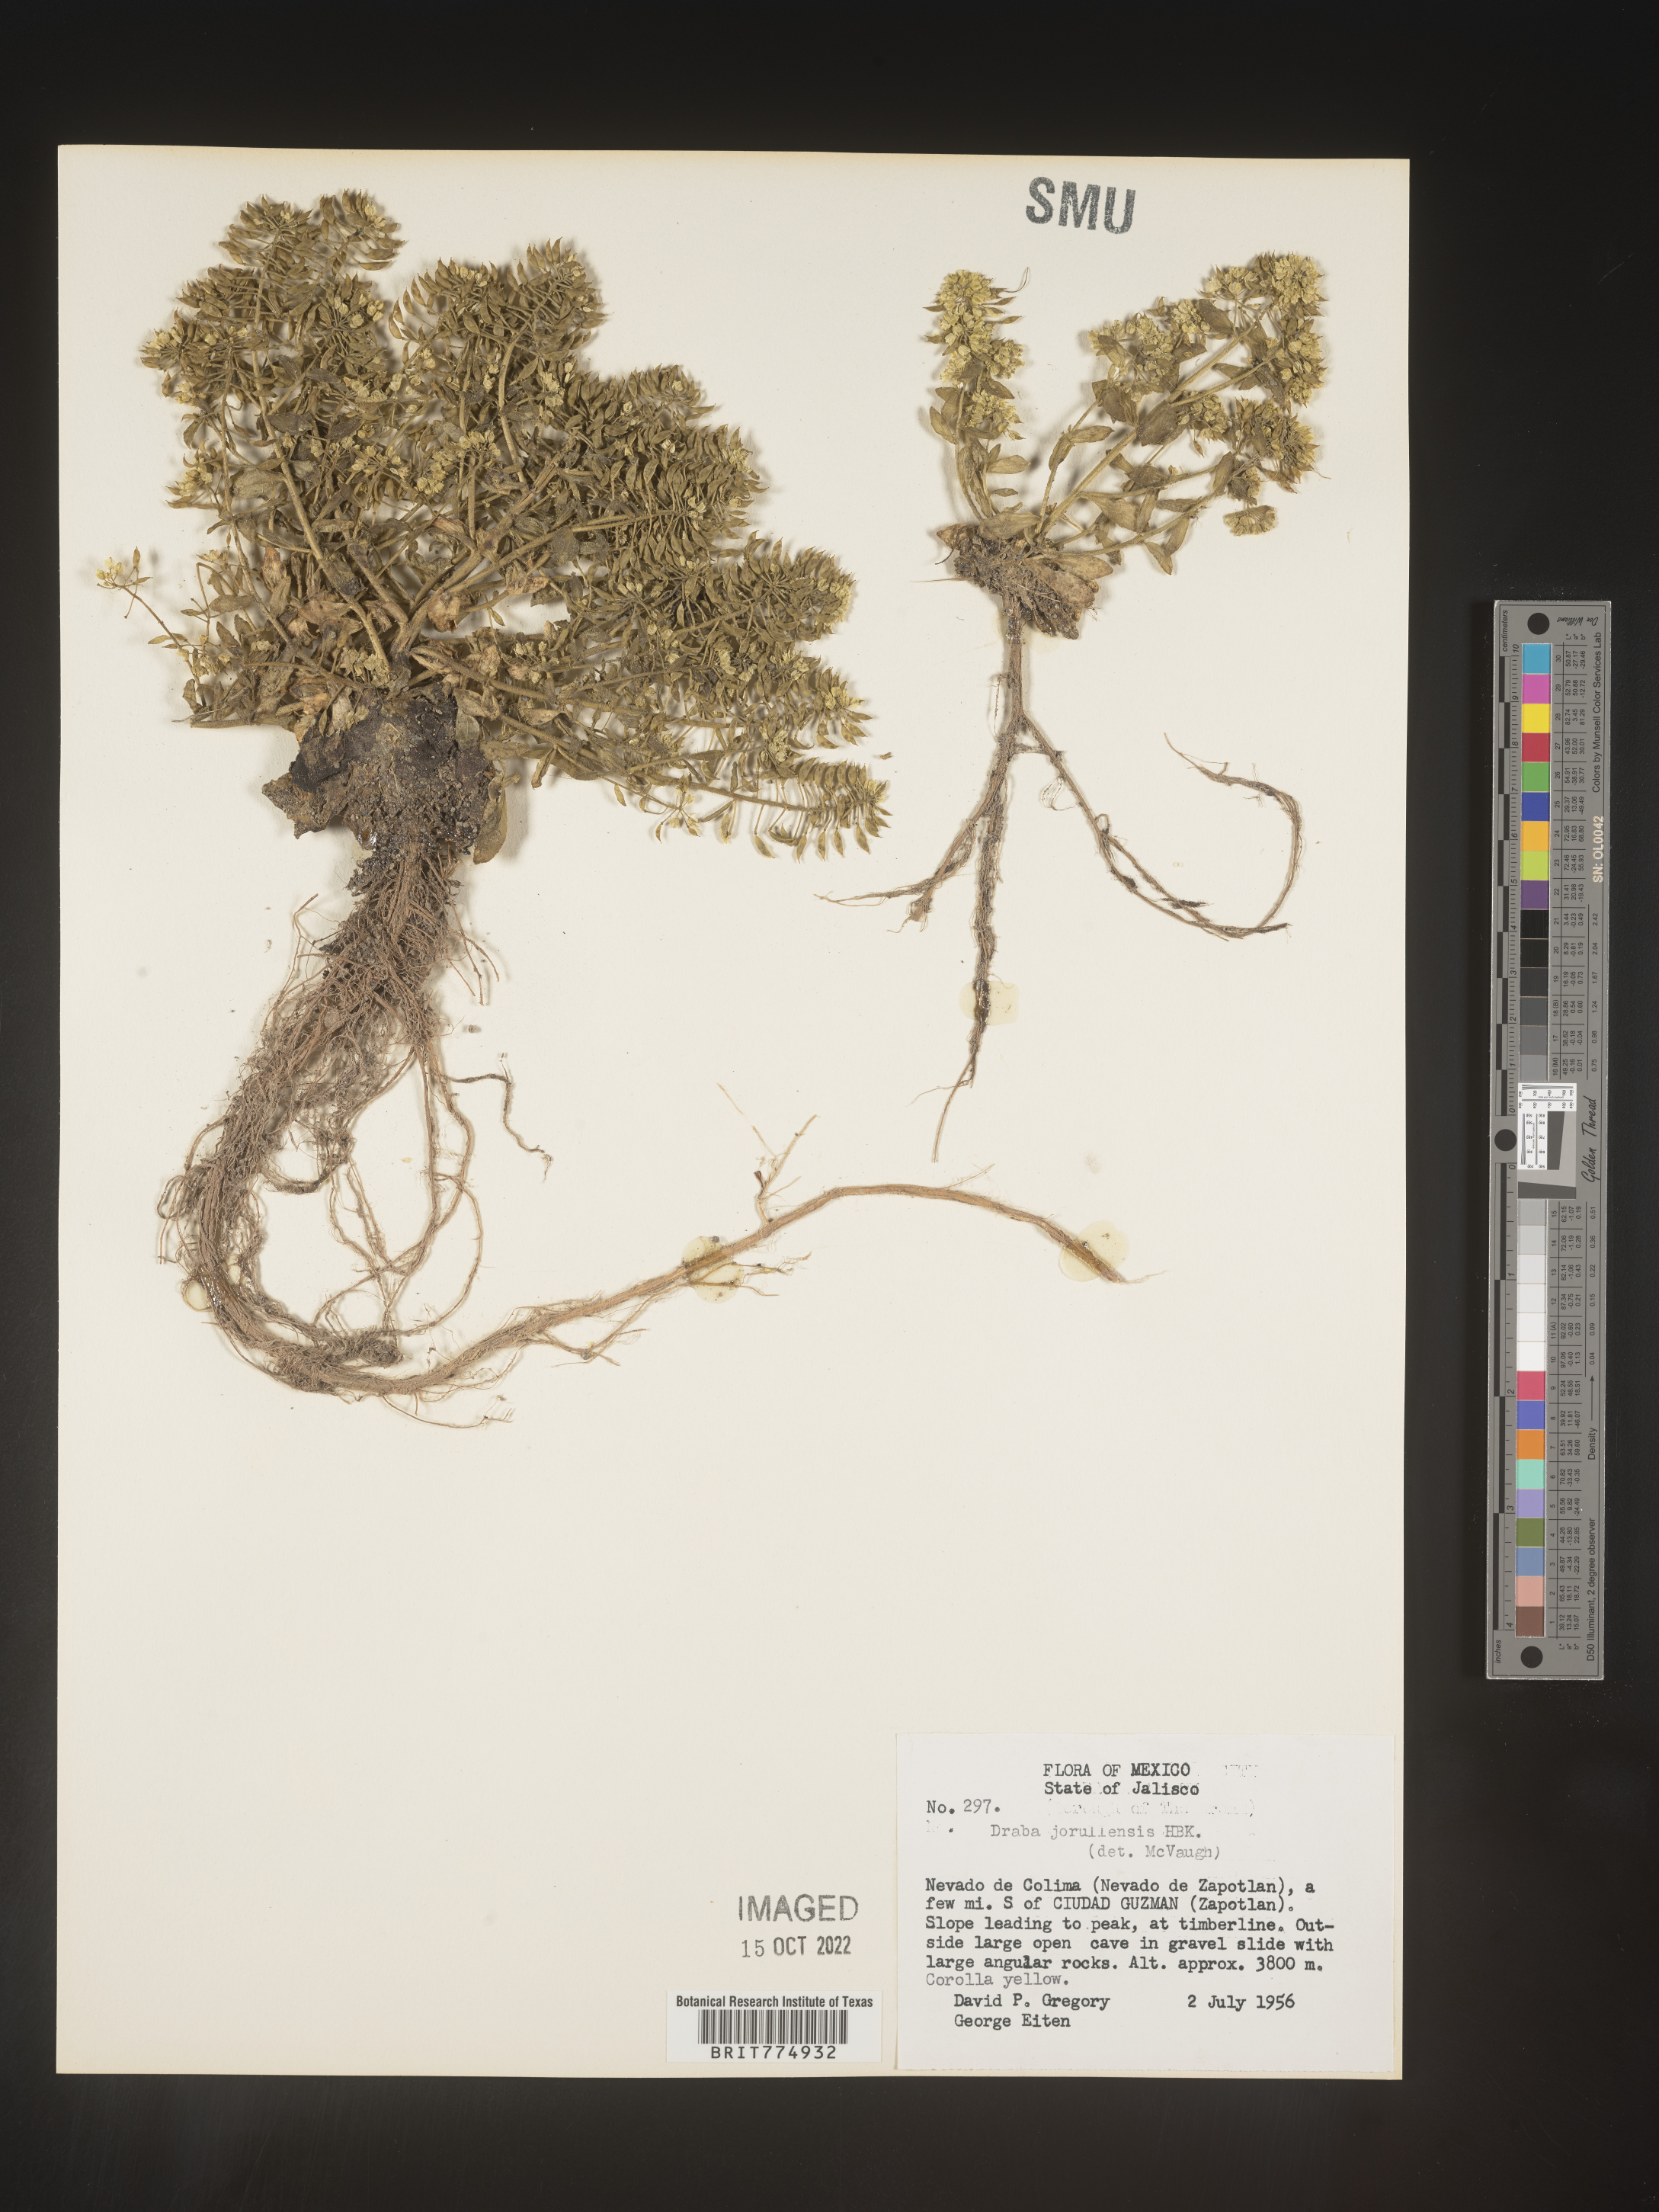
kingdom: Plantae
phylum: Tracheophyta
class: Magnoliopsida
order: Brassicales
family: Brassicaceae
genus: Draba
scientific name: Draba
